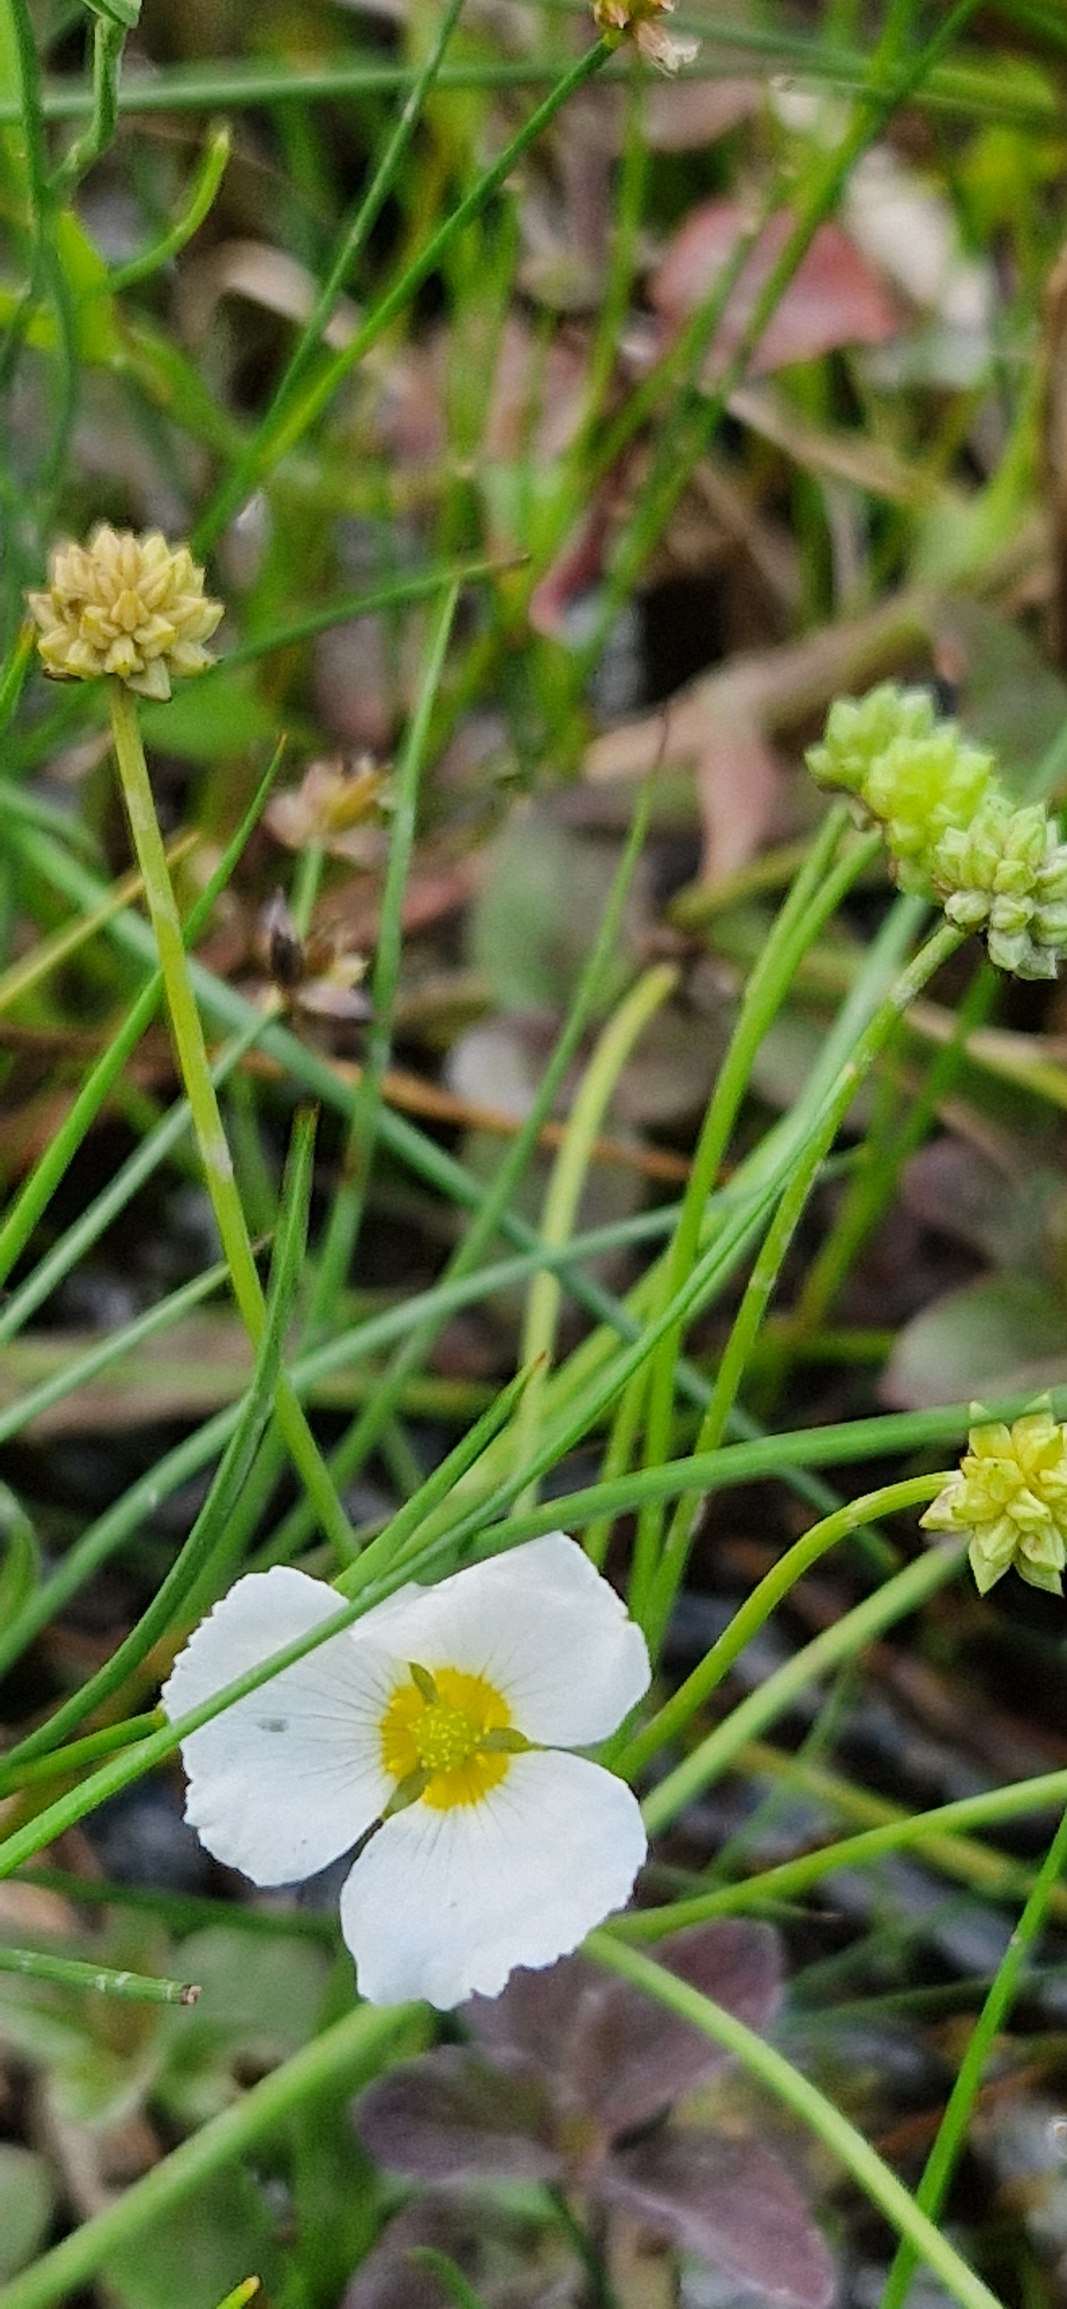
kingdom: Plantae
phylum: Tracheophyta
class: Liliopsida
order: Alismatales
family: Alismataceae
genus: Baldellia
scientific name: Baldellia ranunculoides
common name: Søpryd
